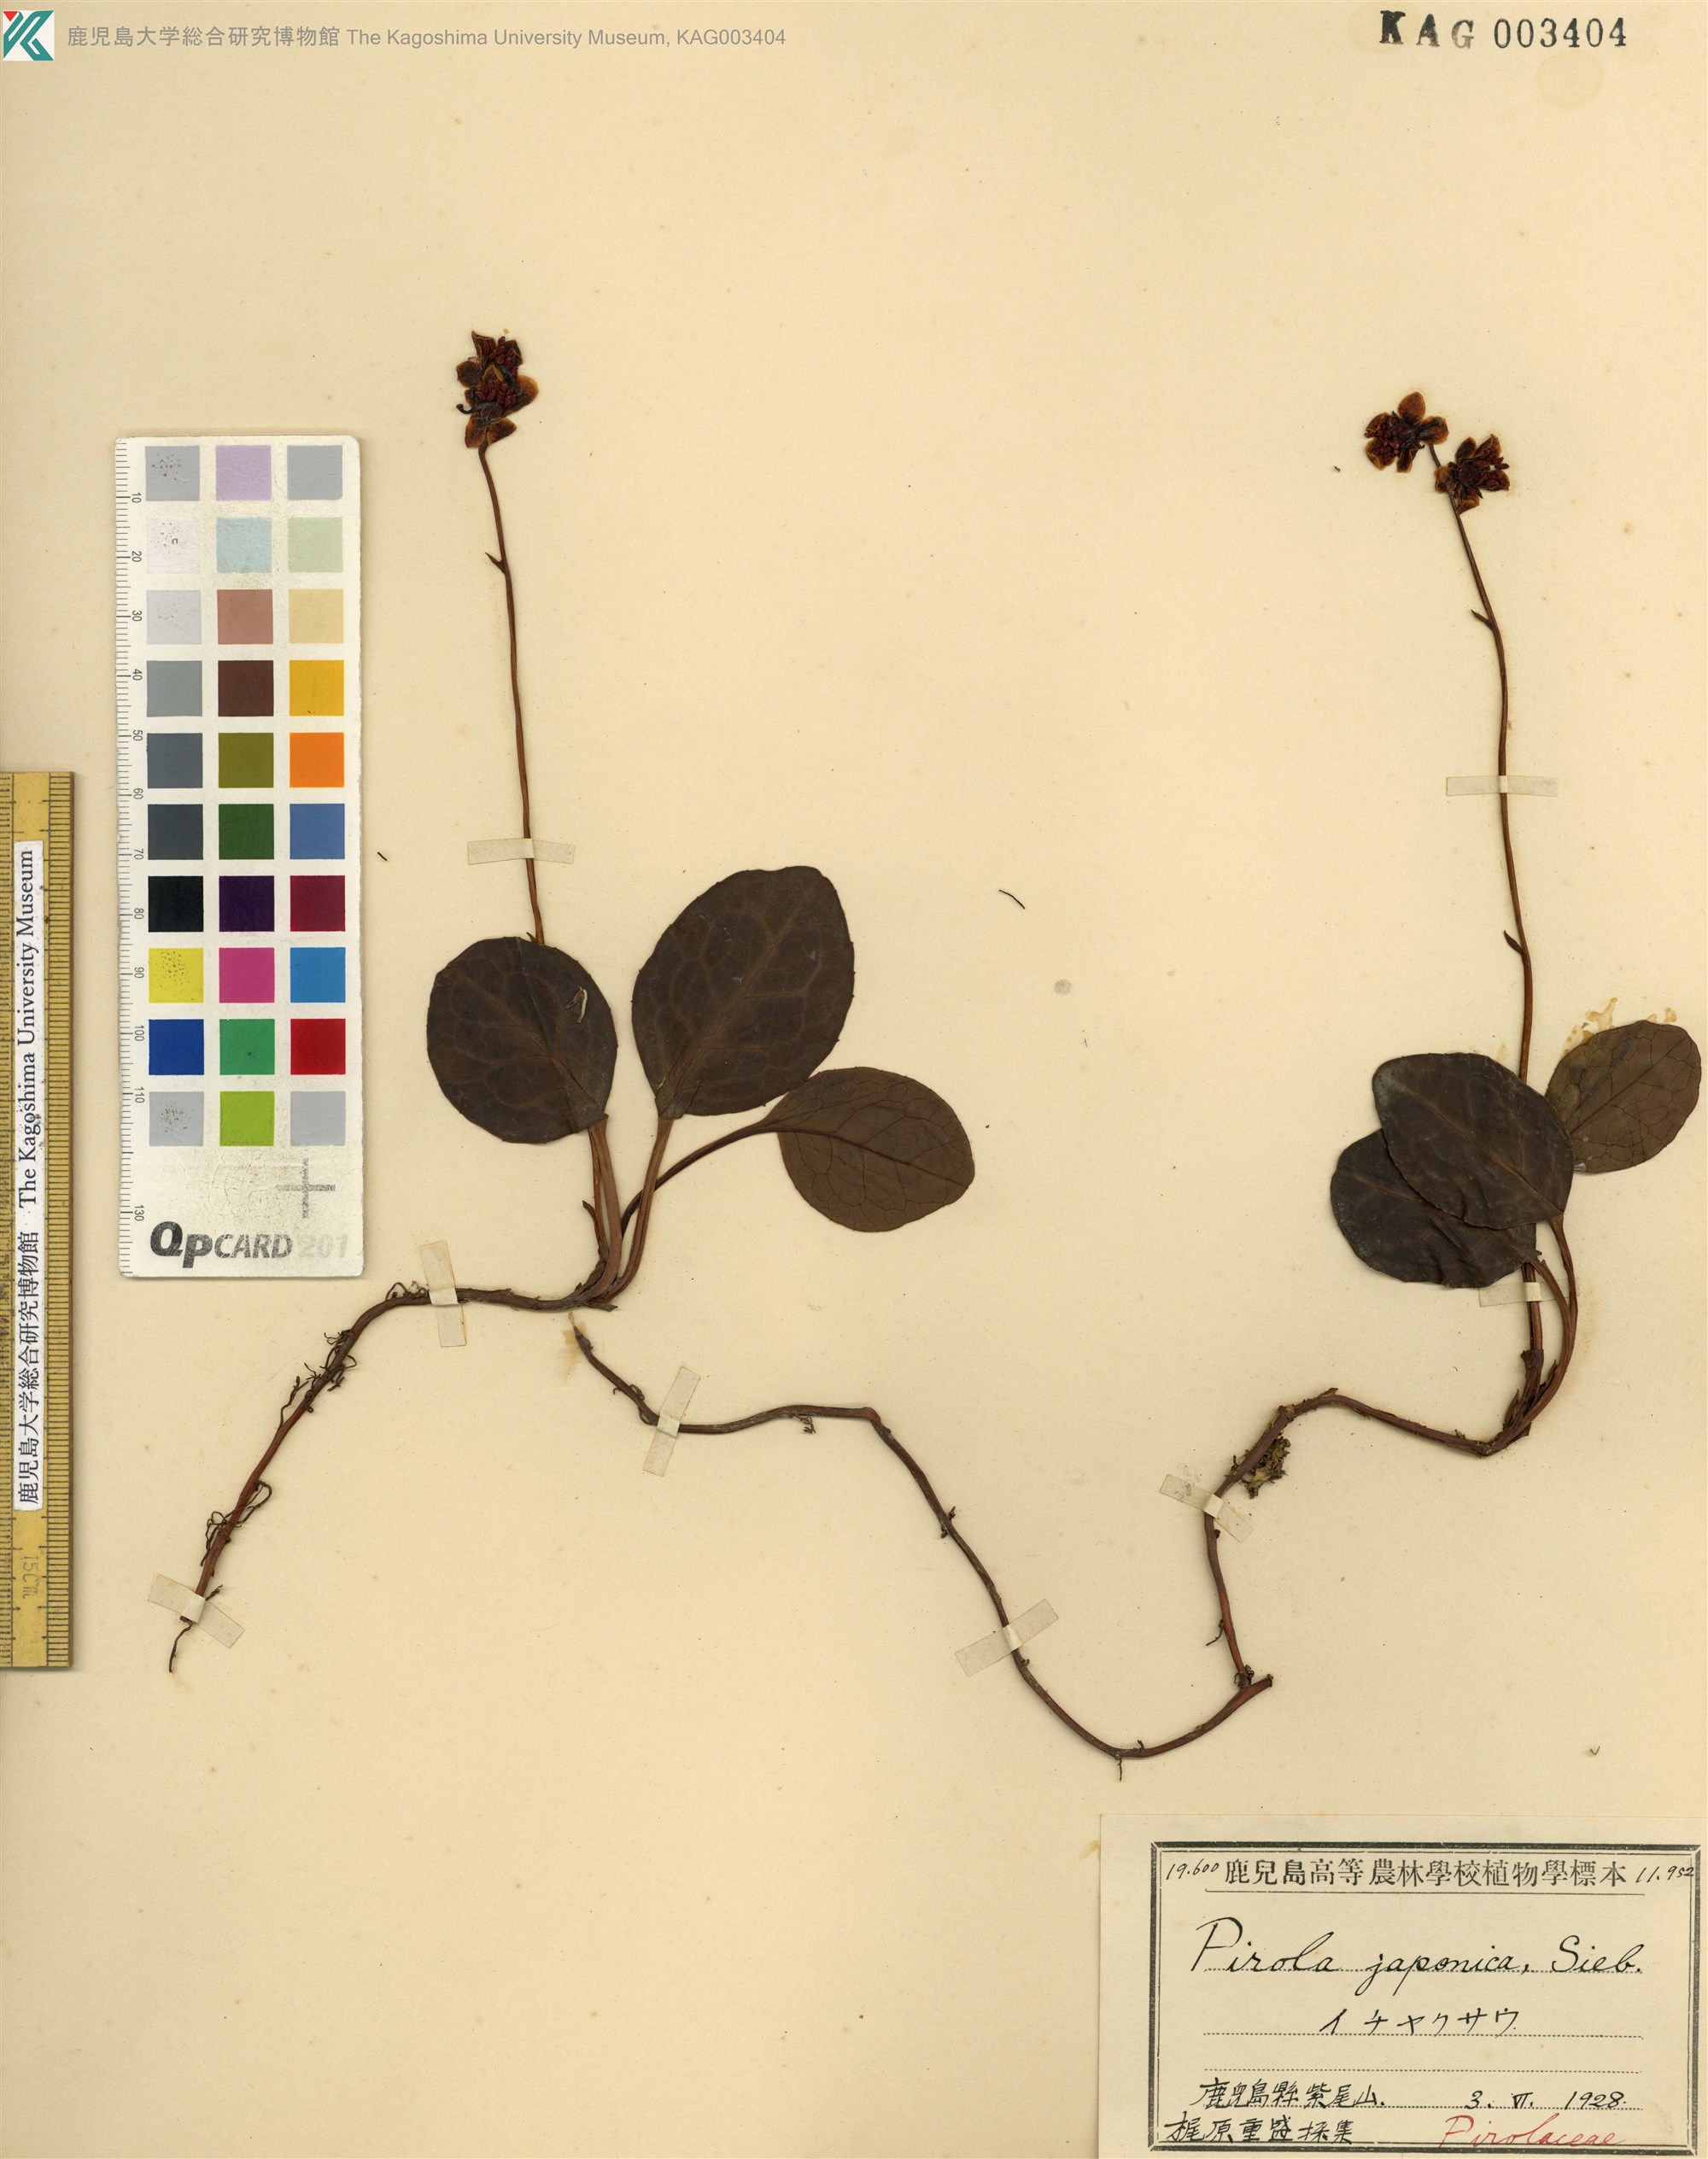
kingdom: Plantae
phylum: Tracheophyta
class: Magnoliopsida
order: Ericales
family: Ericaceae
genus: Pyrola
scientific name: Pyrola japonica
